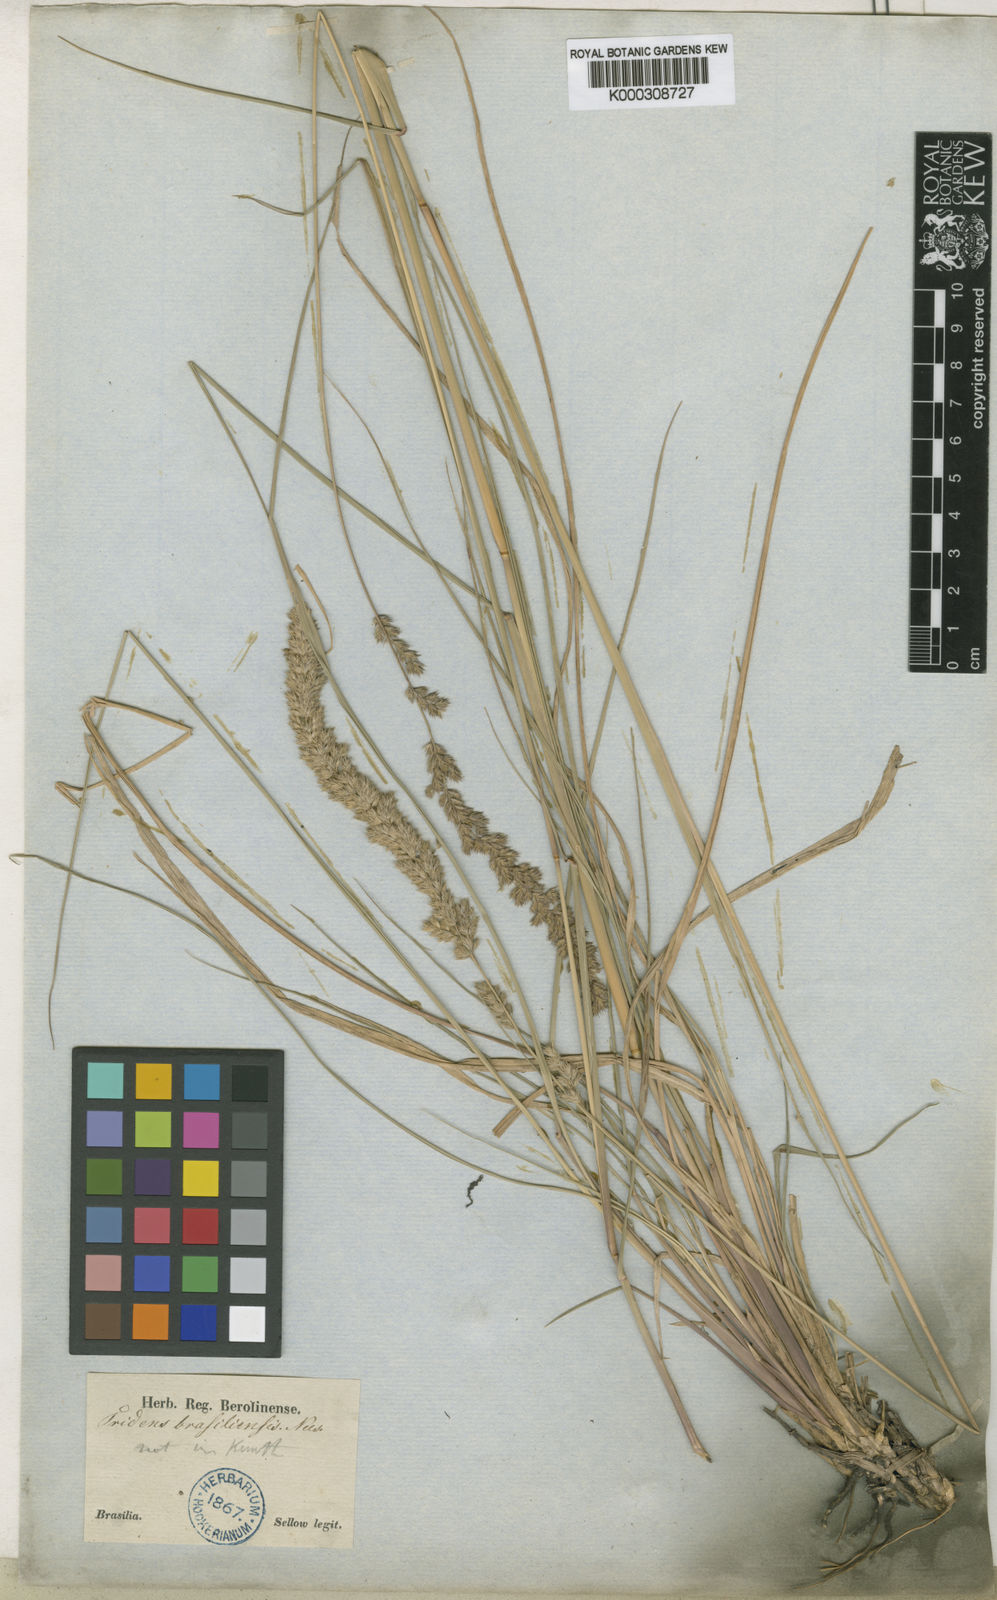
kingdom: Plantae
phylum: Tracheophyta
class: Liliopsida
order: Poales
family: Poaceae
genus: Tridens
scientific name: Tridens
